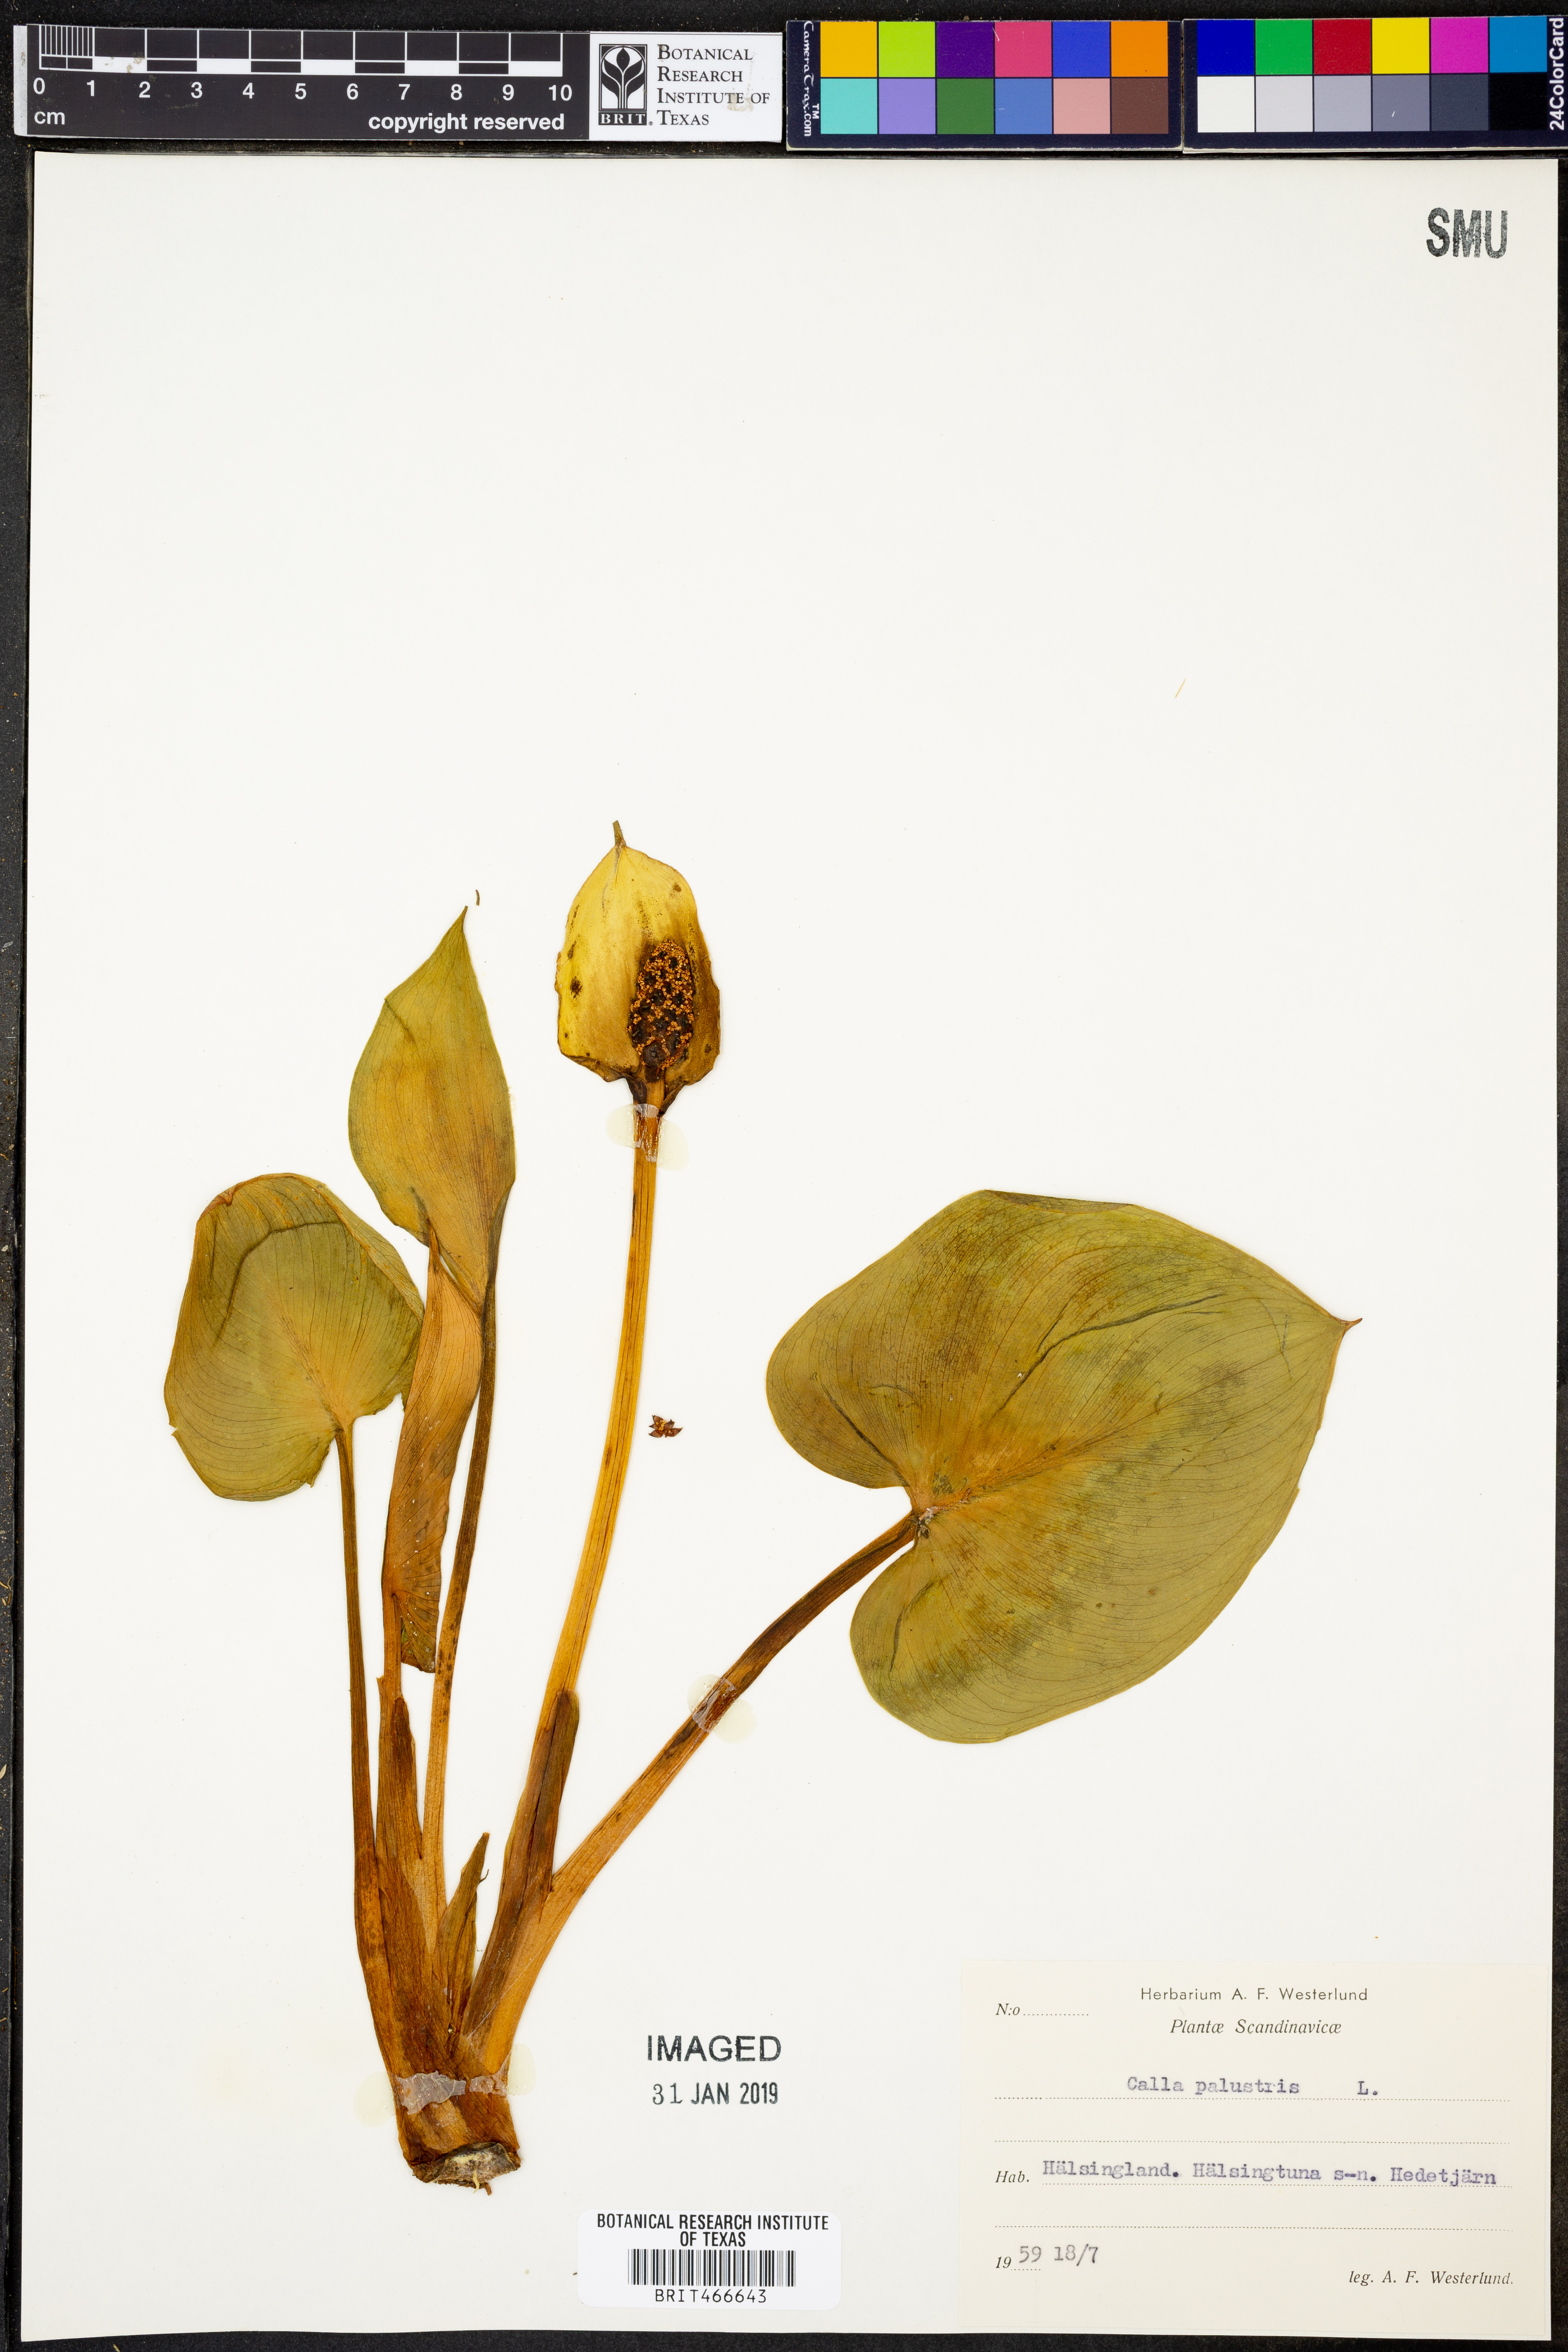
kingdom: Plantae
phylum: Tracheophyta
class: Liliopsida
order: Alismatales
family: Araceae
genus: Calla
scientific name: Calla palustris
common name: Bog arum
